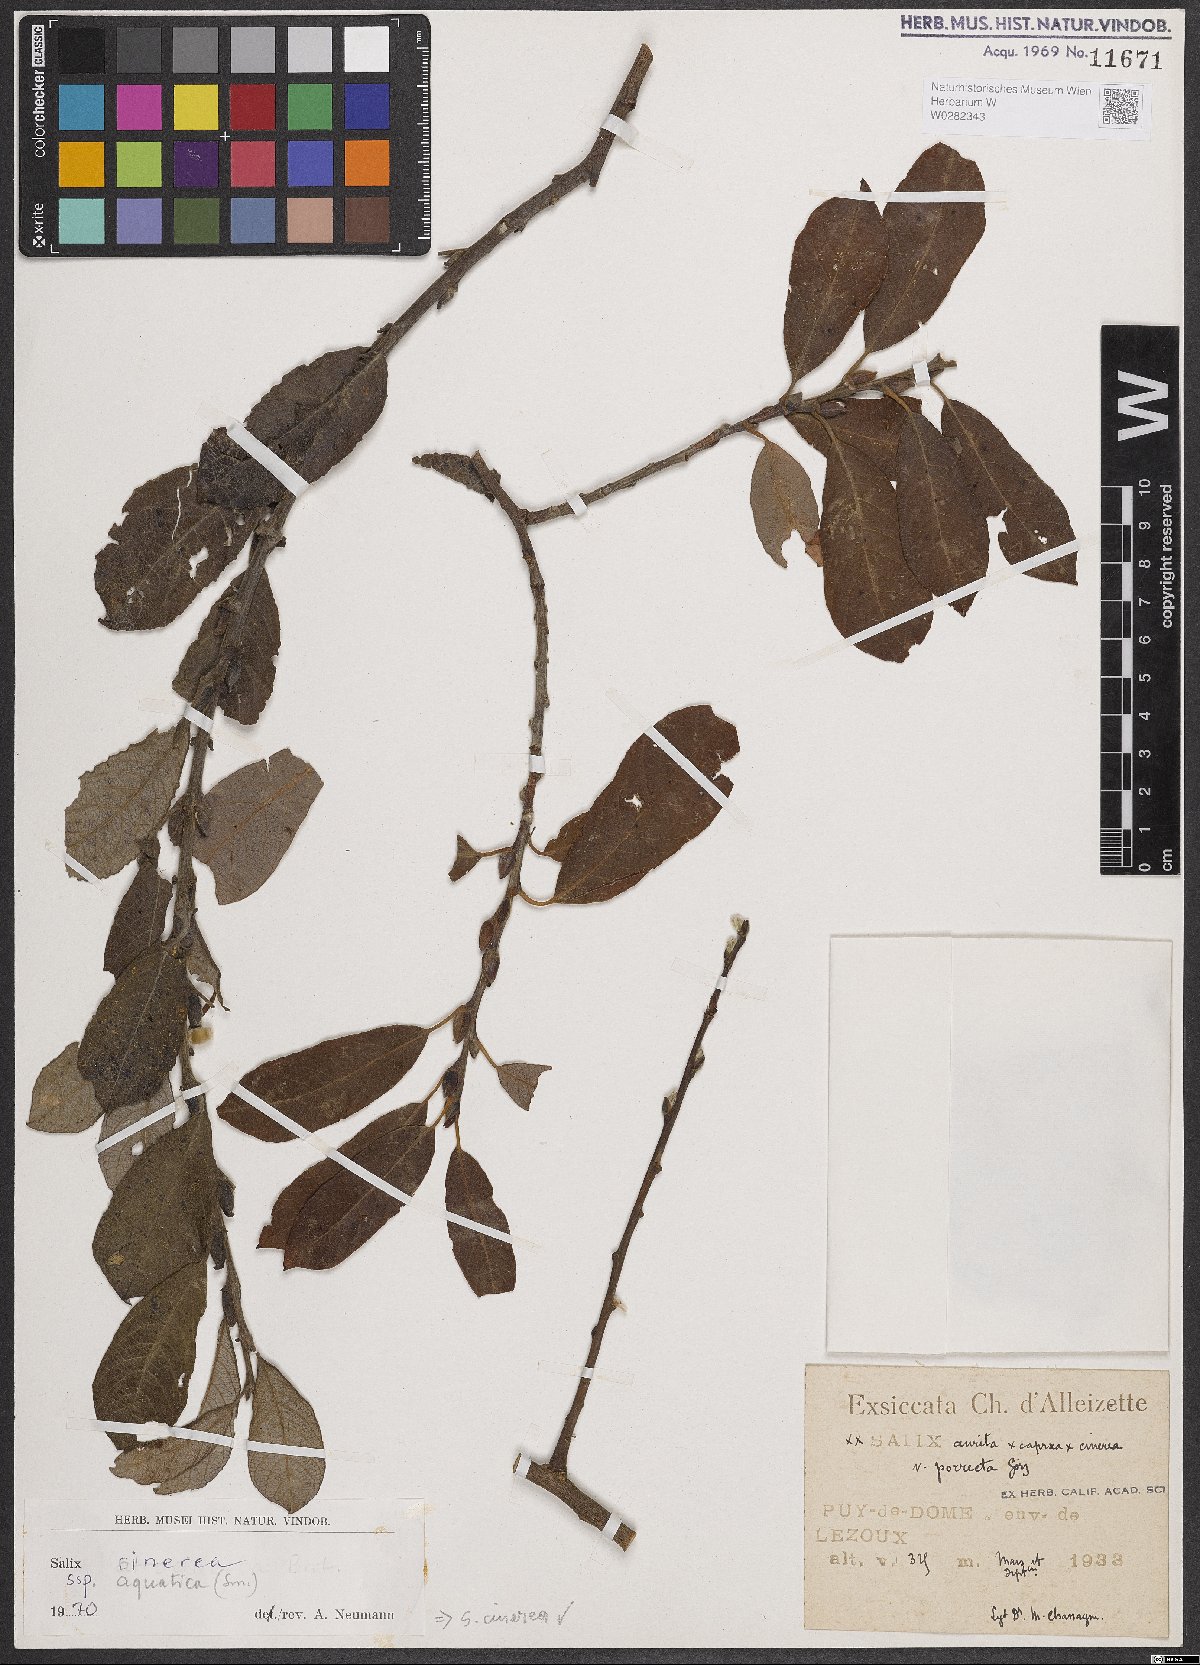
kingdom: Plantae
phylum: Tracheophyta
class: Magnoliopsida
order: Malpighiales
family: Salicaceae
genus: Salix
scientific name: Salix cinerea
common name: Common sallow
